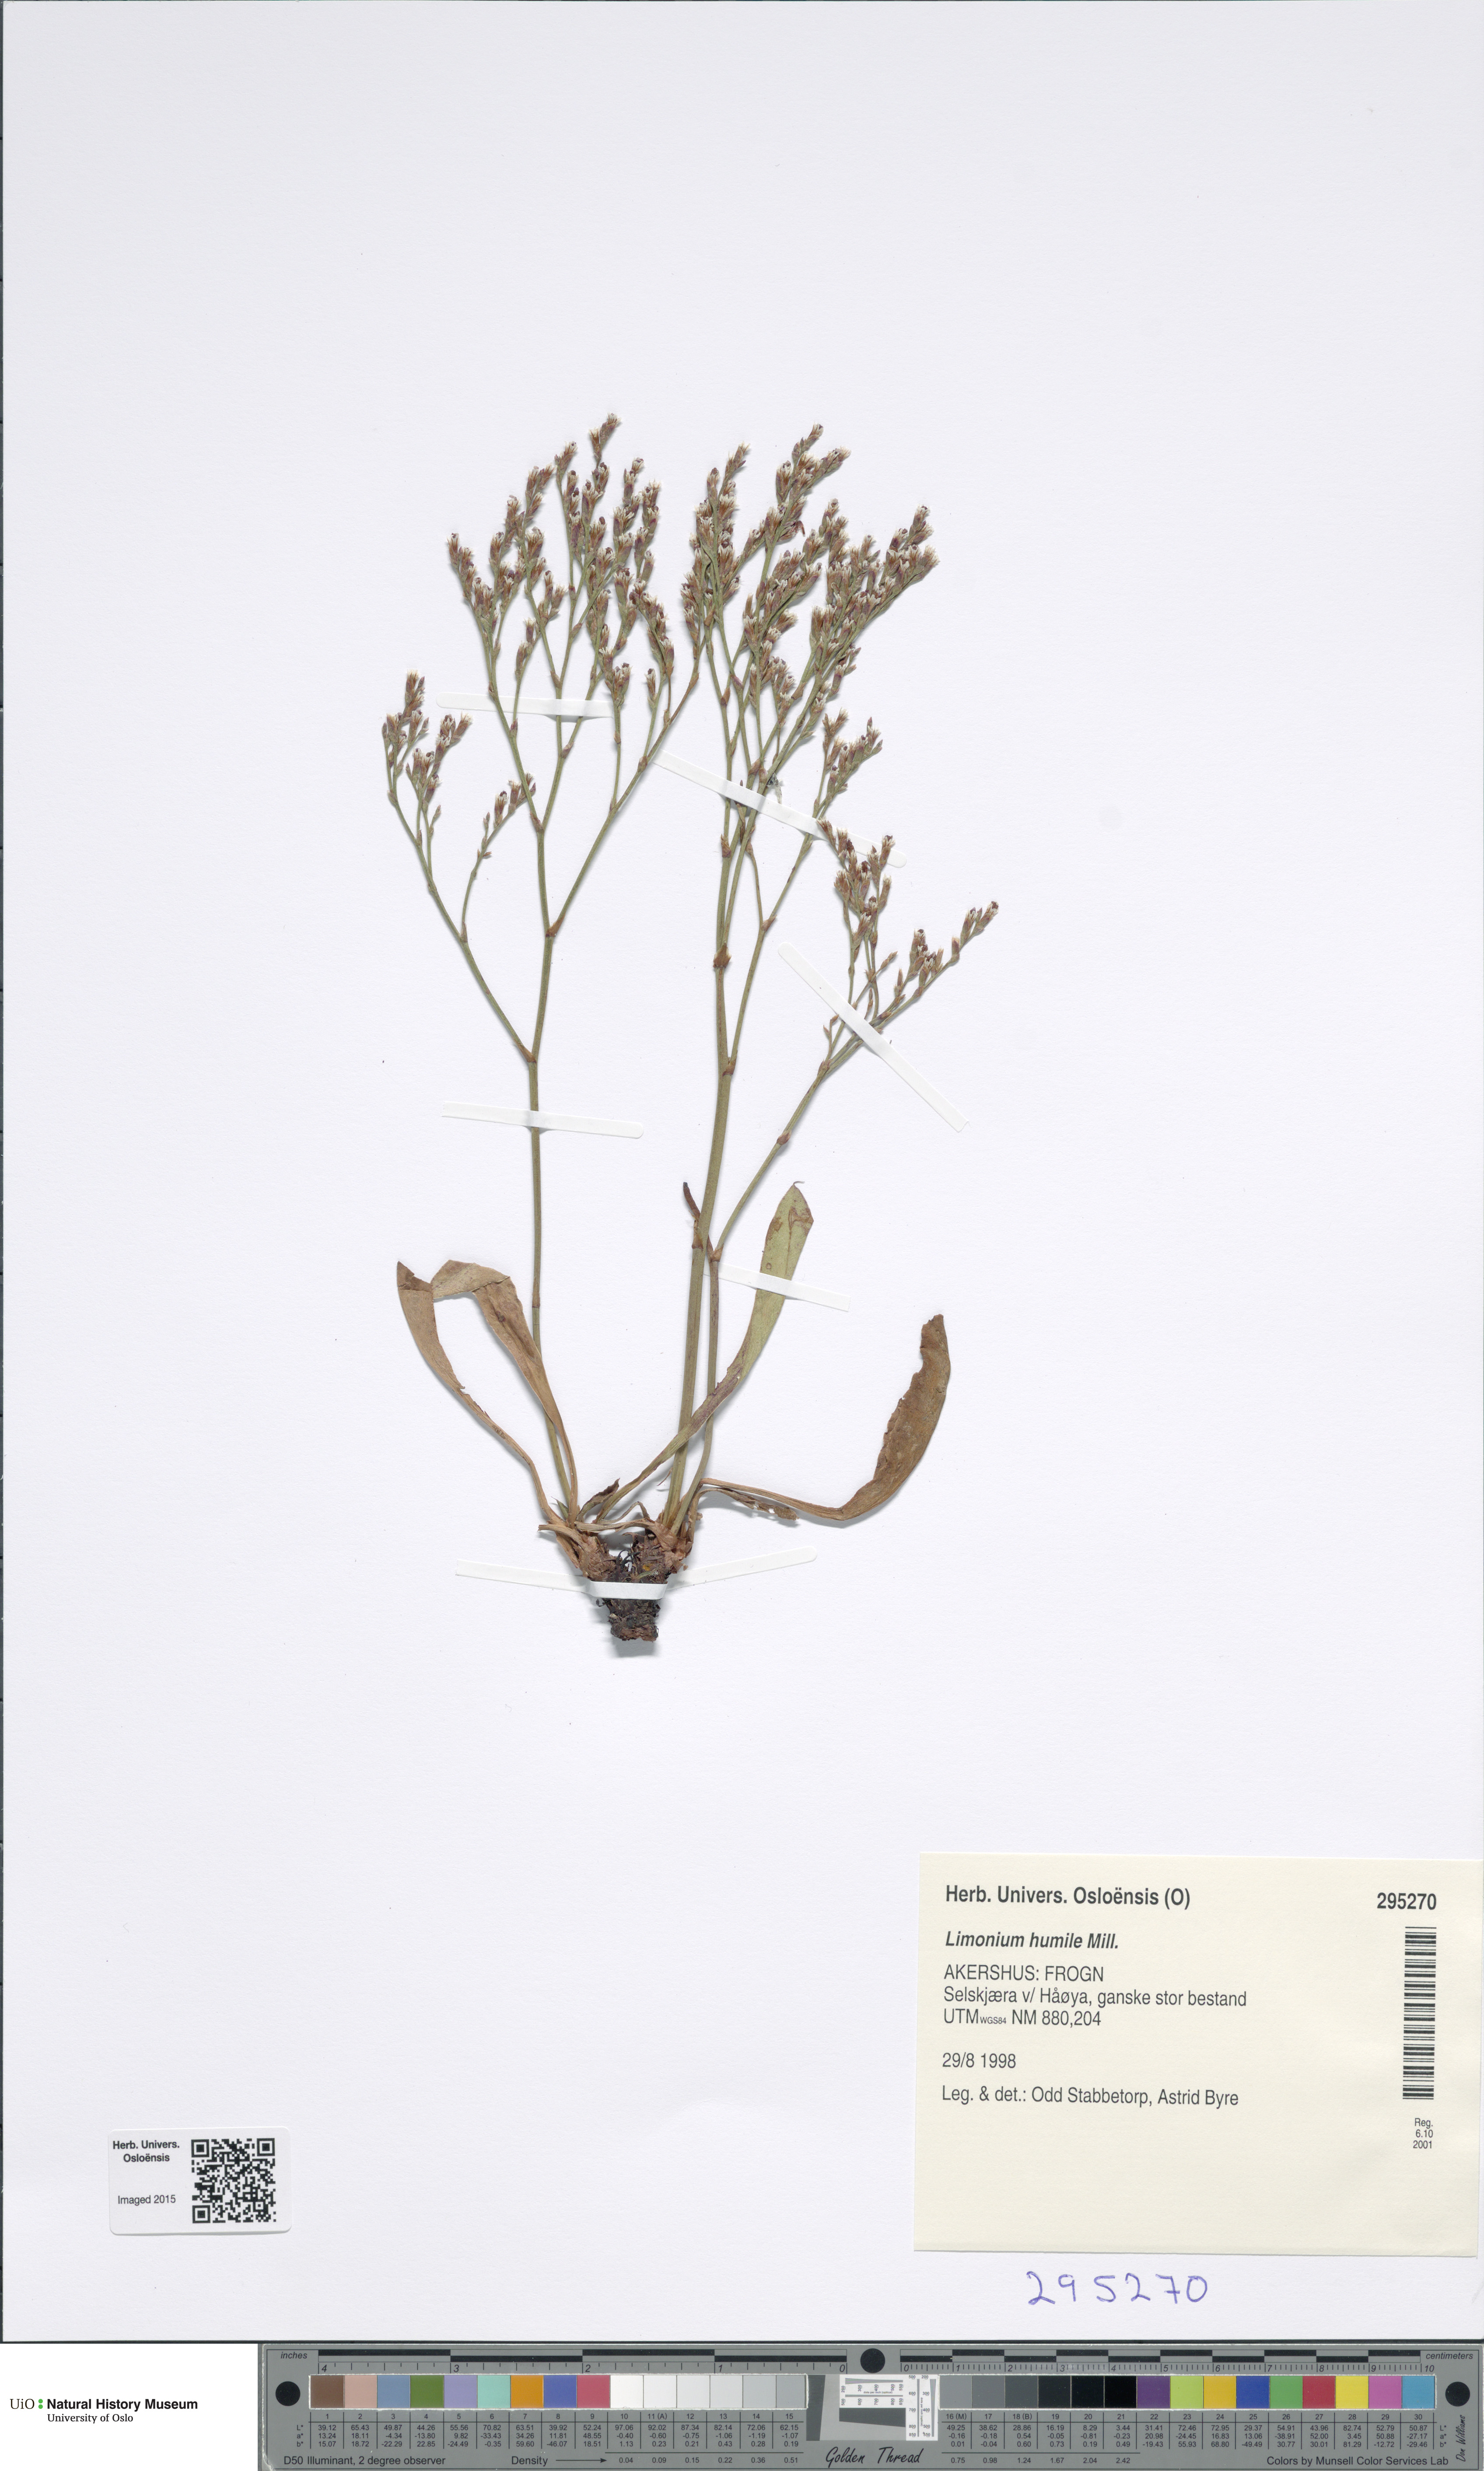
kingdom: Plantae
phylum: Tracheophyta
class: Magnoliopsida
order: Caryophyllales
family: Plumbaginaceae
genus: Limonium
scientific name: Limonium humile
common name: Lax-flowered sea-lavender
